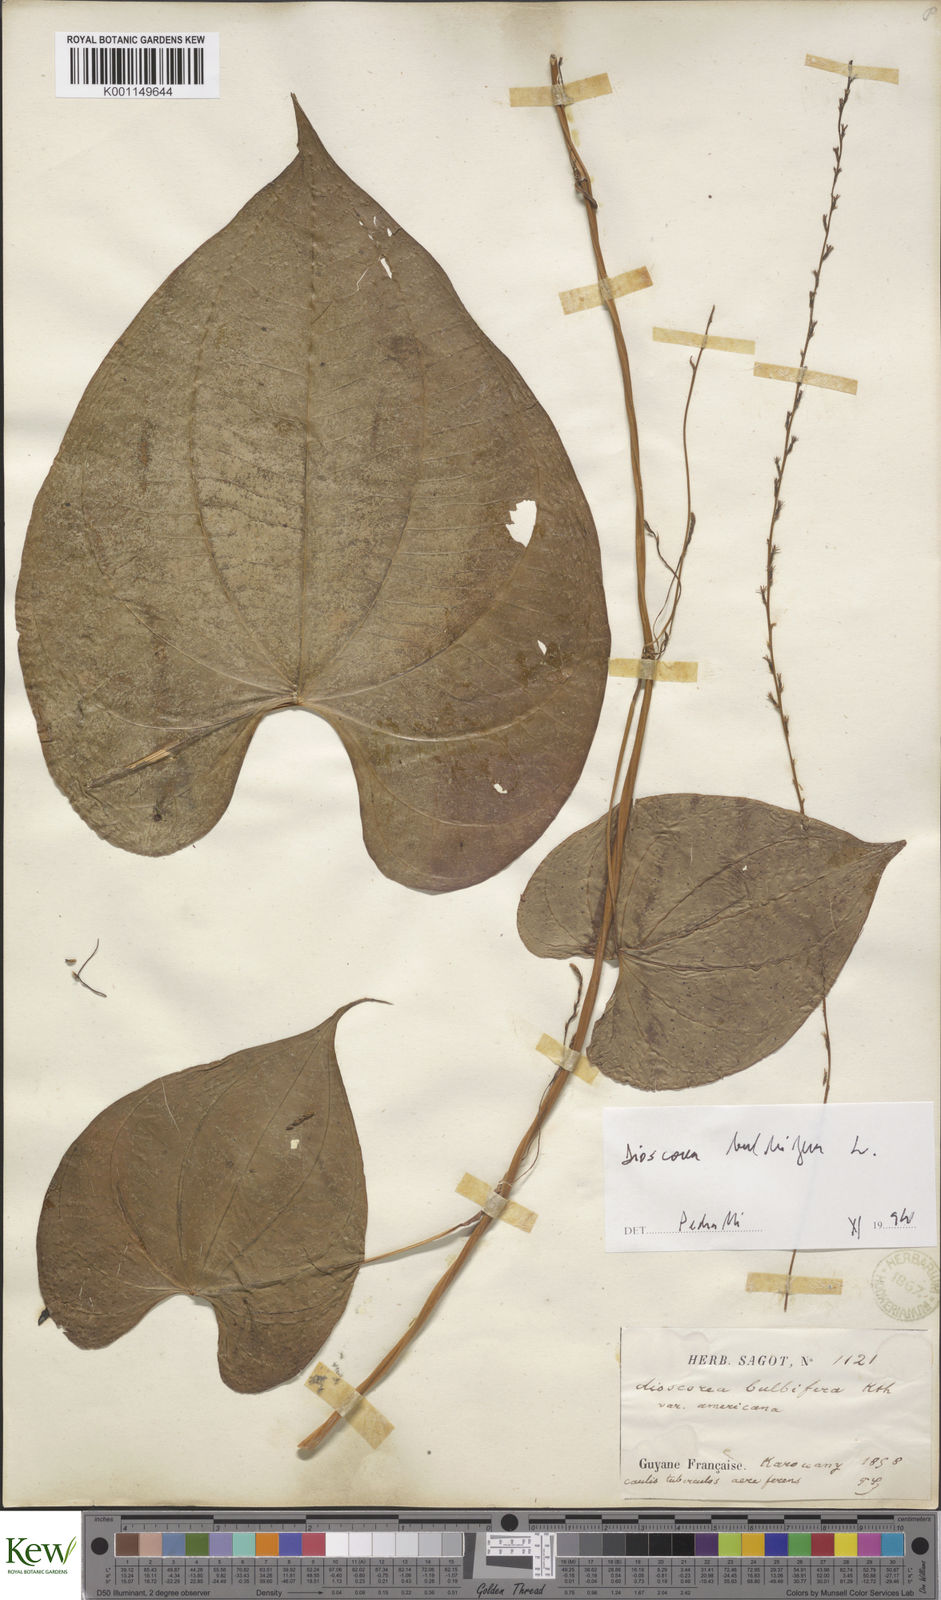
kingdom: Plantae
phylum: Tracheophyta
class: Liliopsida
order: Dioscoreales
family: Dioscoreaceae
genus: Dioscorea
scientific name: Dioscorea bulbifera
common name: Air yam
